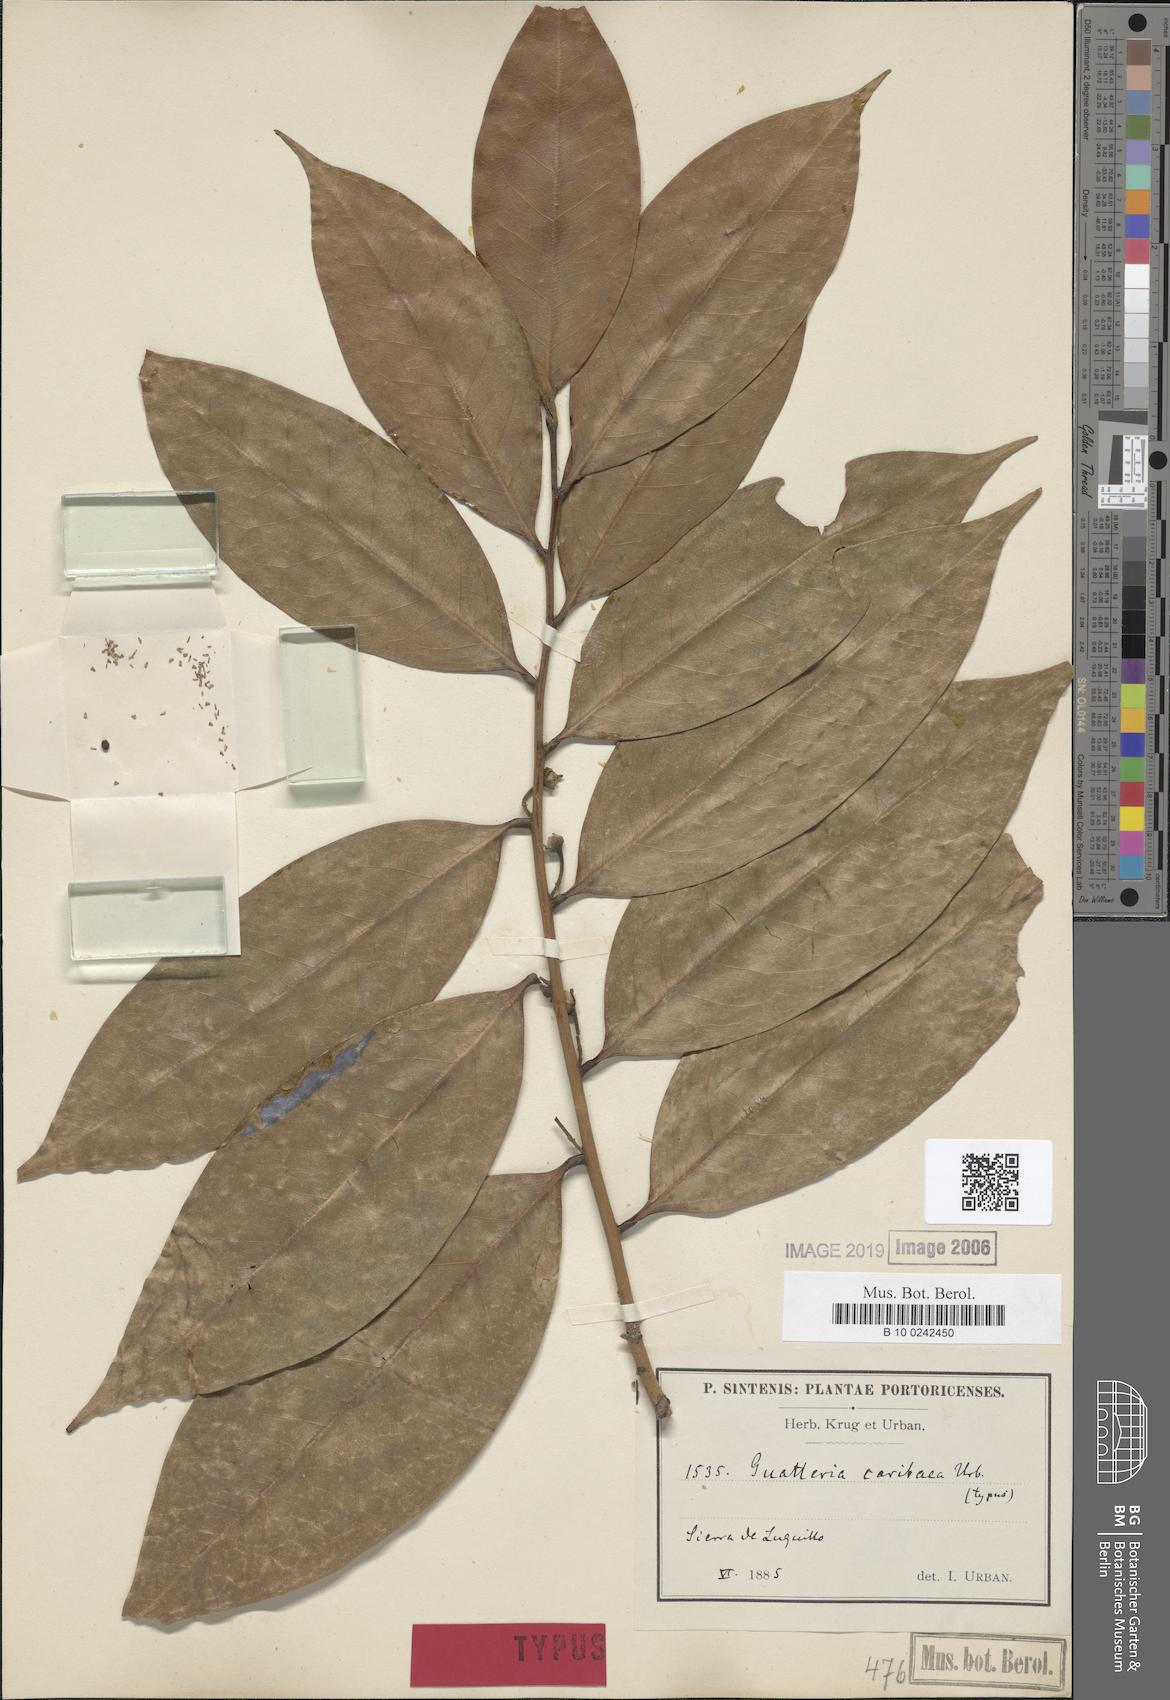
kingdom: Plantae
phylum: Tracheophyta
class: Magnoliopsida
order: Magnoliales
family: Annonaceae
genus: Guatteria
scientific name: Guatteria caribaea
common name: Wild soursop
